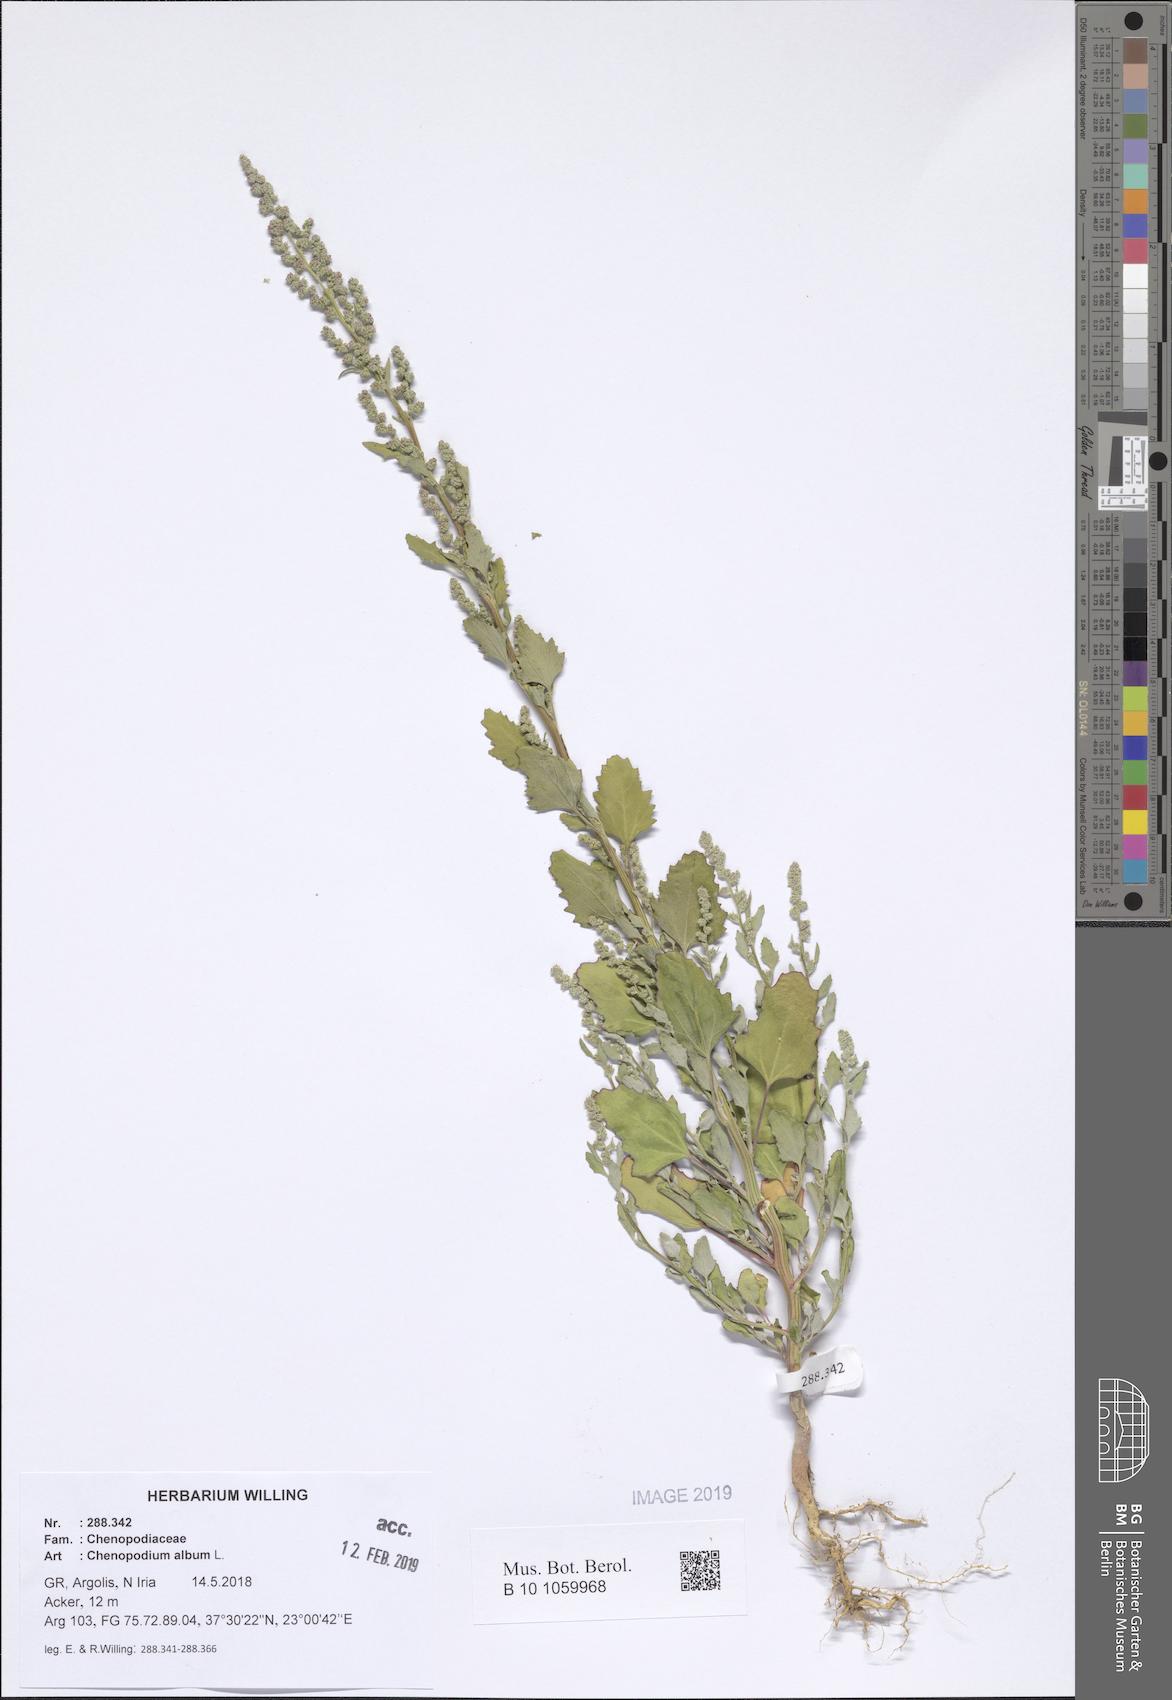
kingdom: Plantae
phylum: Tracheophyta
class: Magnoliopsida
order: Caryophyllales
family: Amaranthaceae
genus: Chenopodium
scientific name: Chenopodium album
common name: Fat-hen
